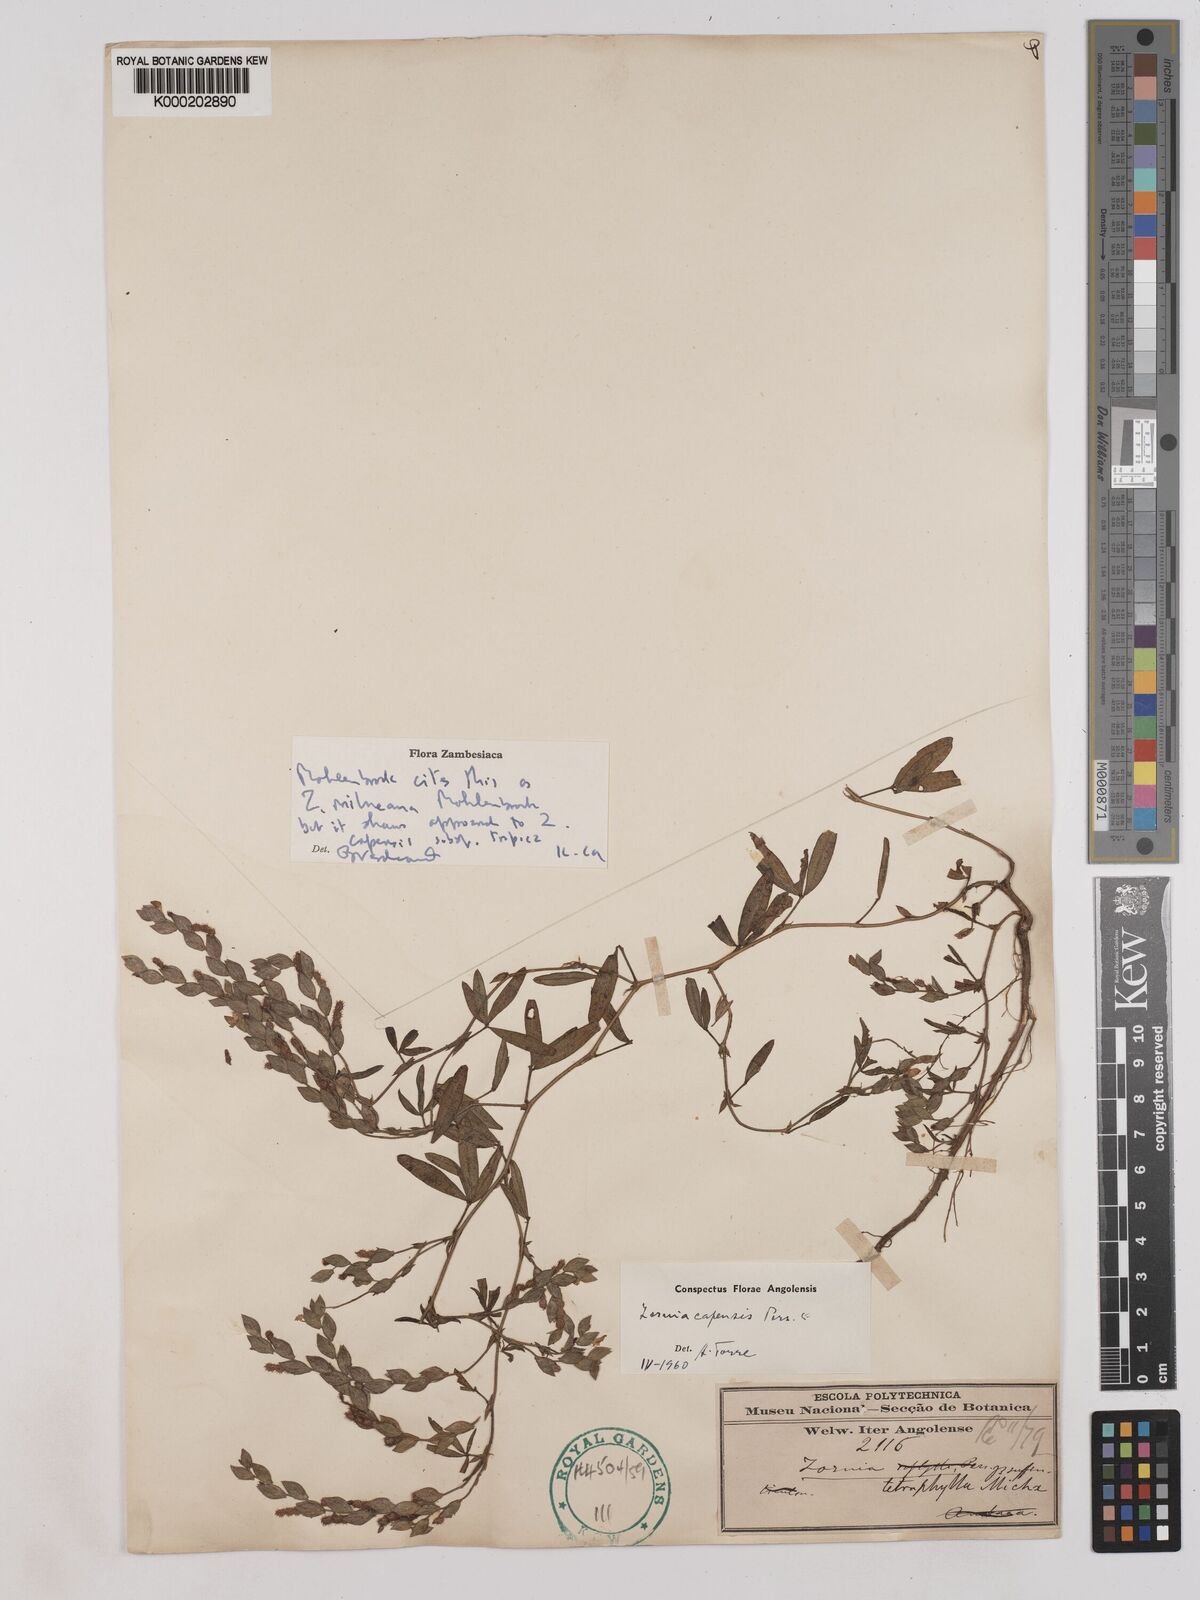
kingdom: Plantae
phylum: Tracheophyta
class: Magnoliopsida
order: Fabales
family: Fabaceae
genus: Zornia
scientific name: Zornia milneana
